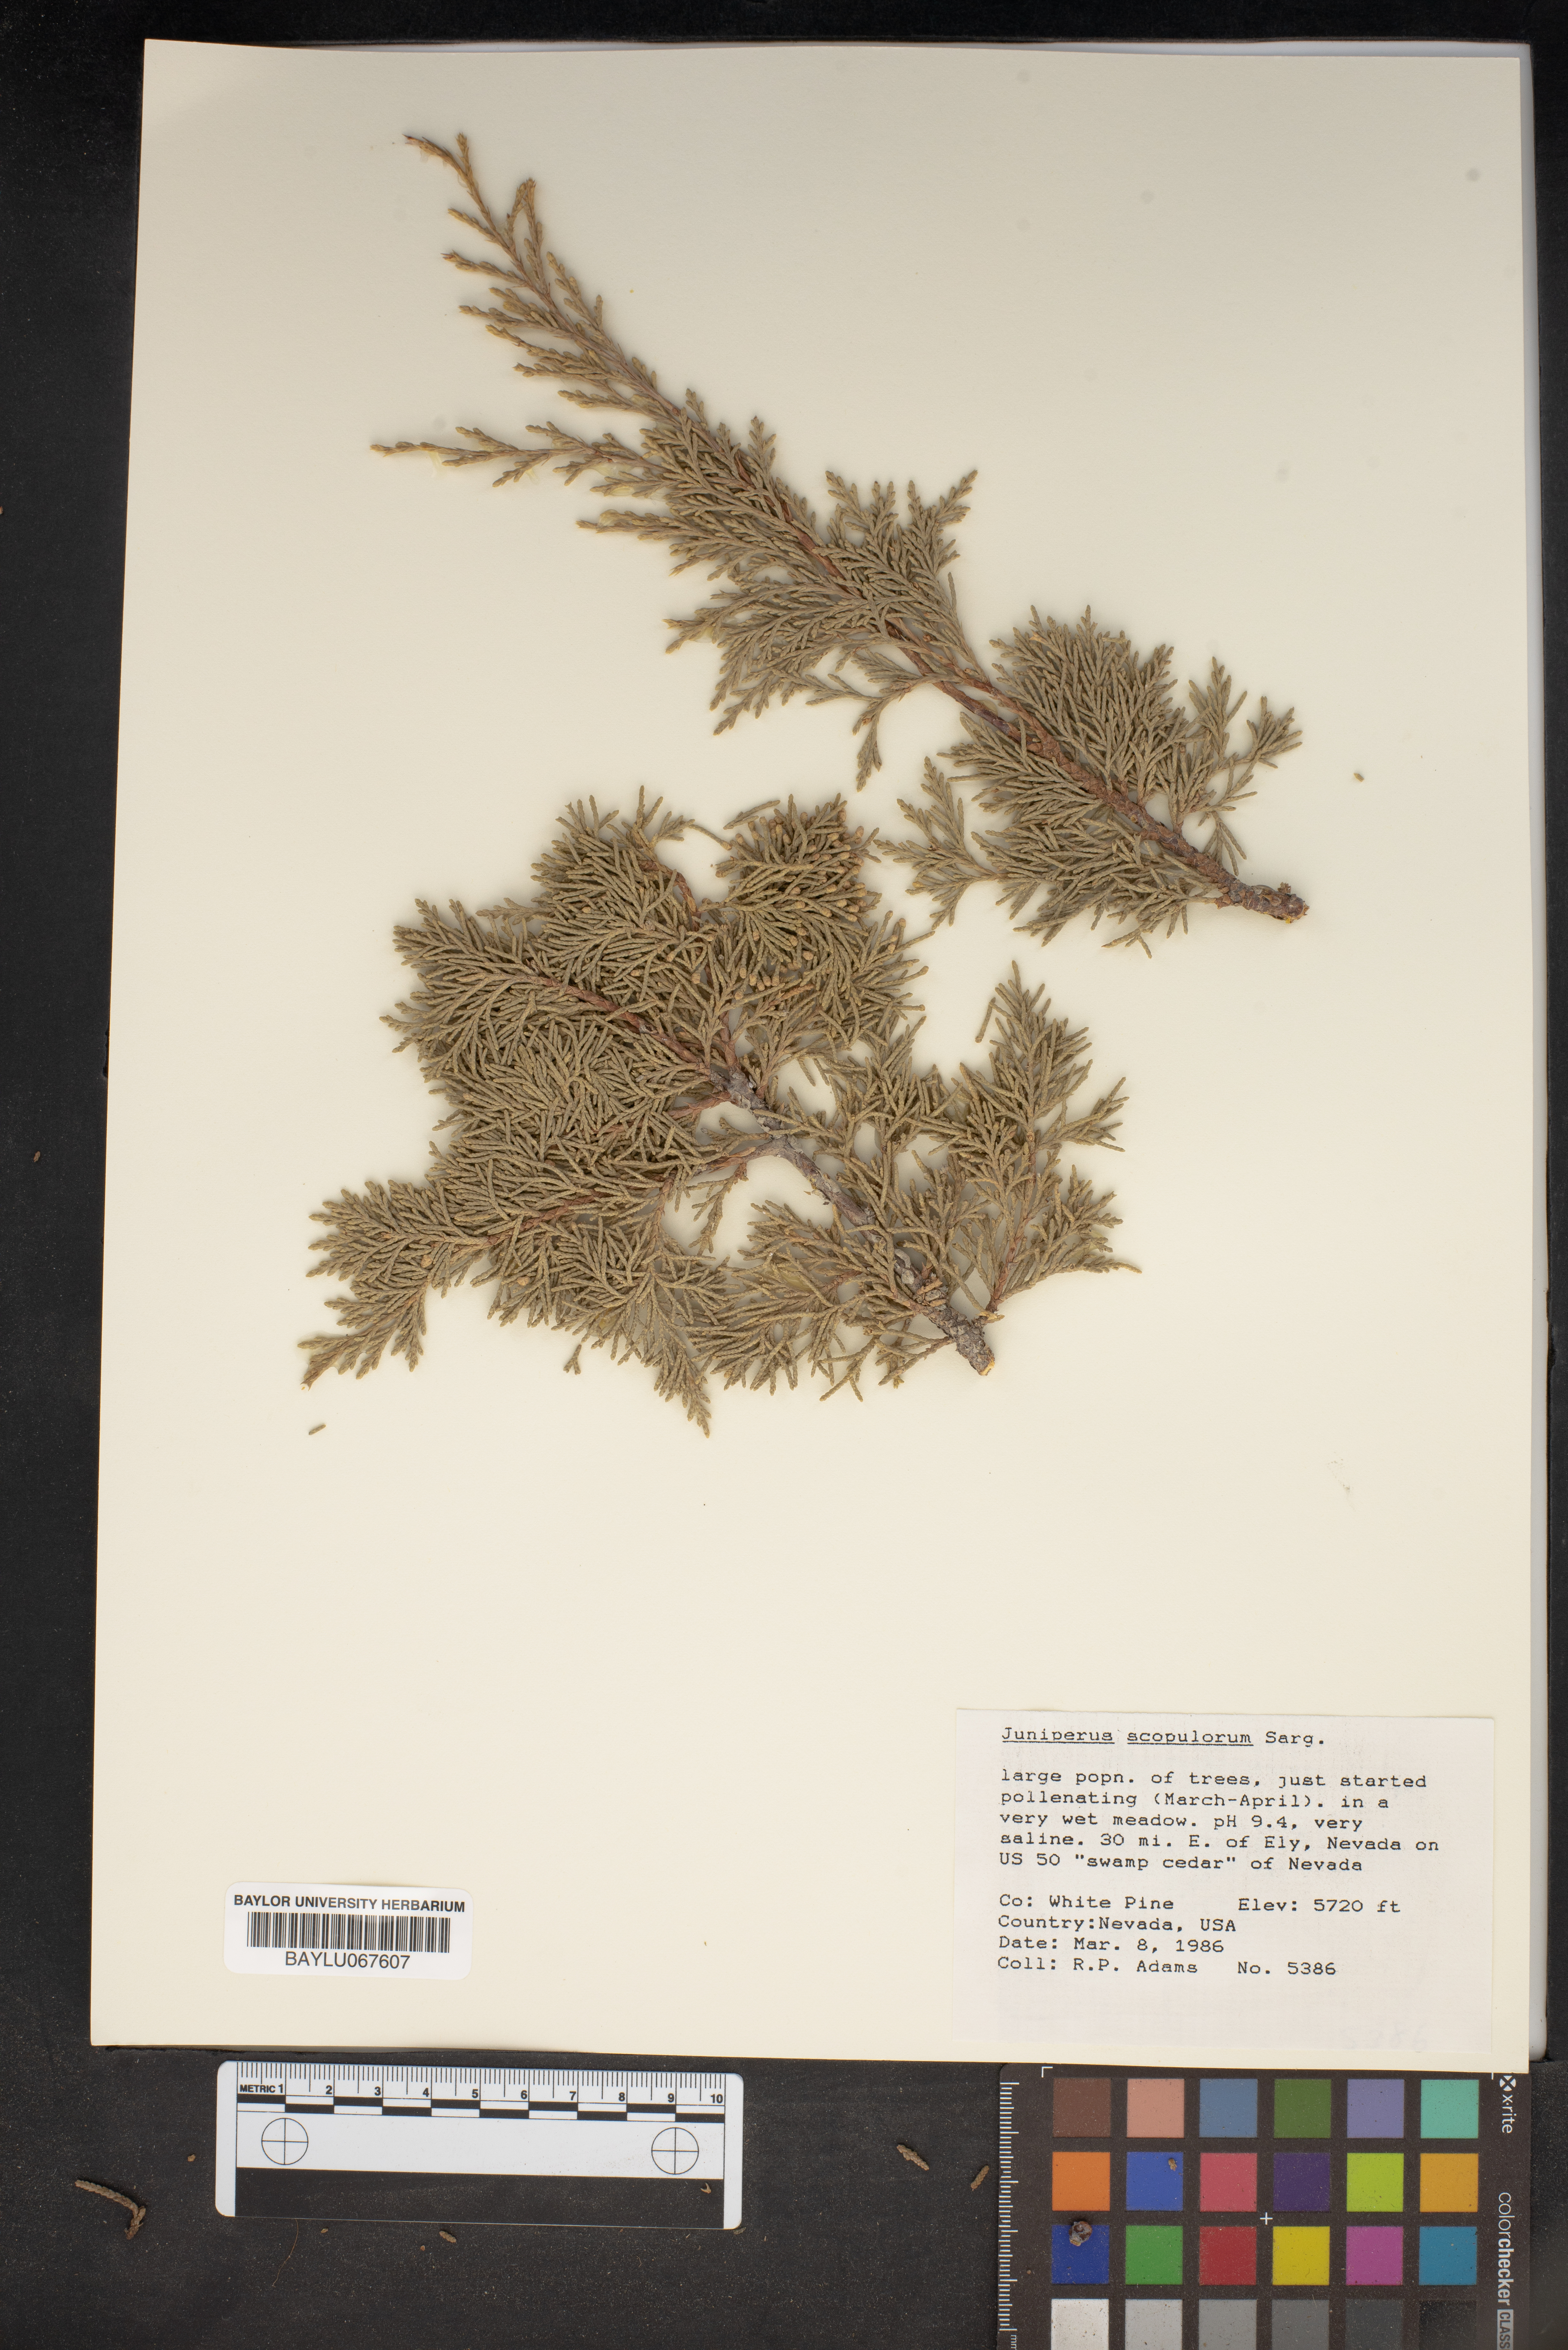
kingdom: Plantae
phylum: Tracheophyta
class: Pinopsida
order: Pinales
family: Cupressaceae
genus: Juniperus
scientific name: Juniperus scopulorum
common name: Rocky mountain juniper
